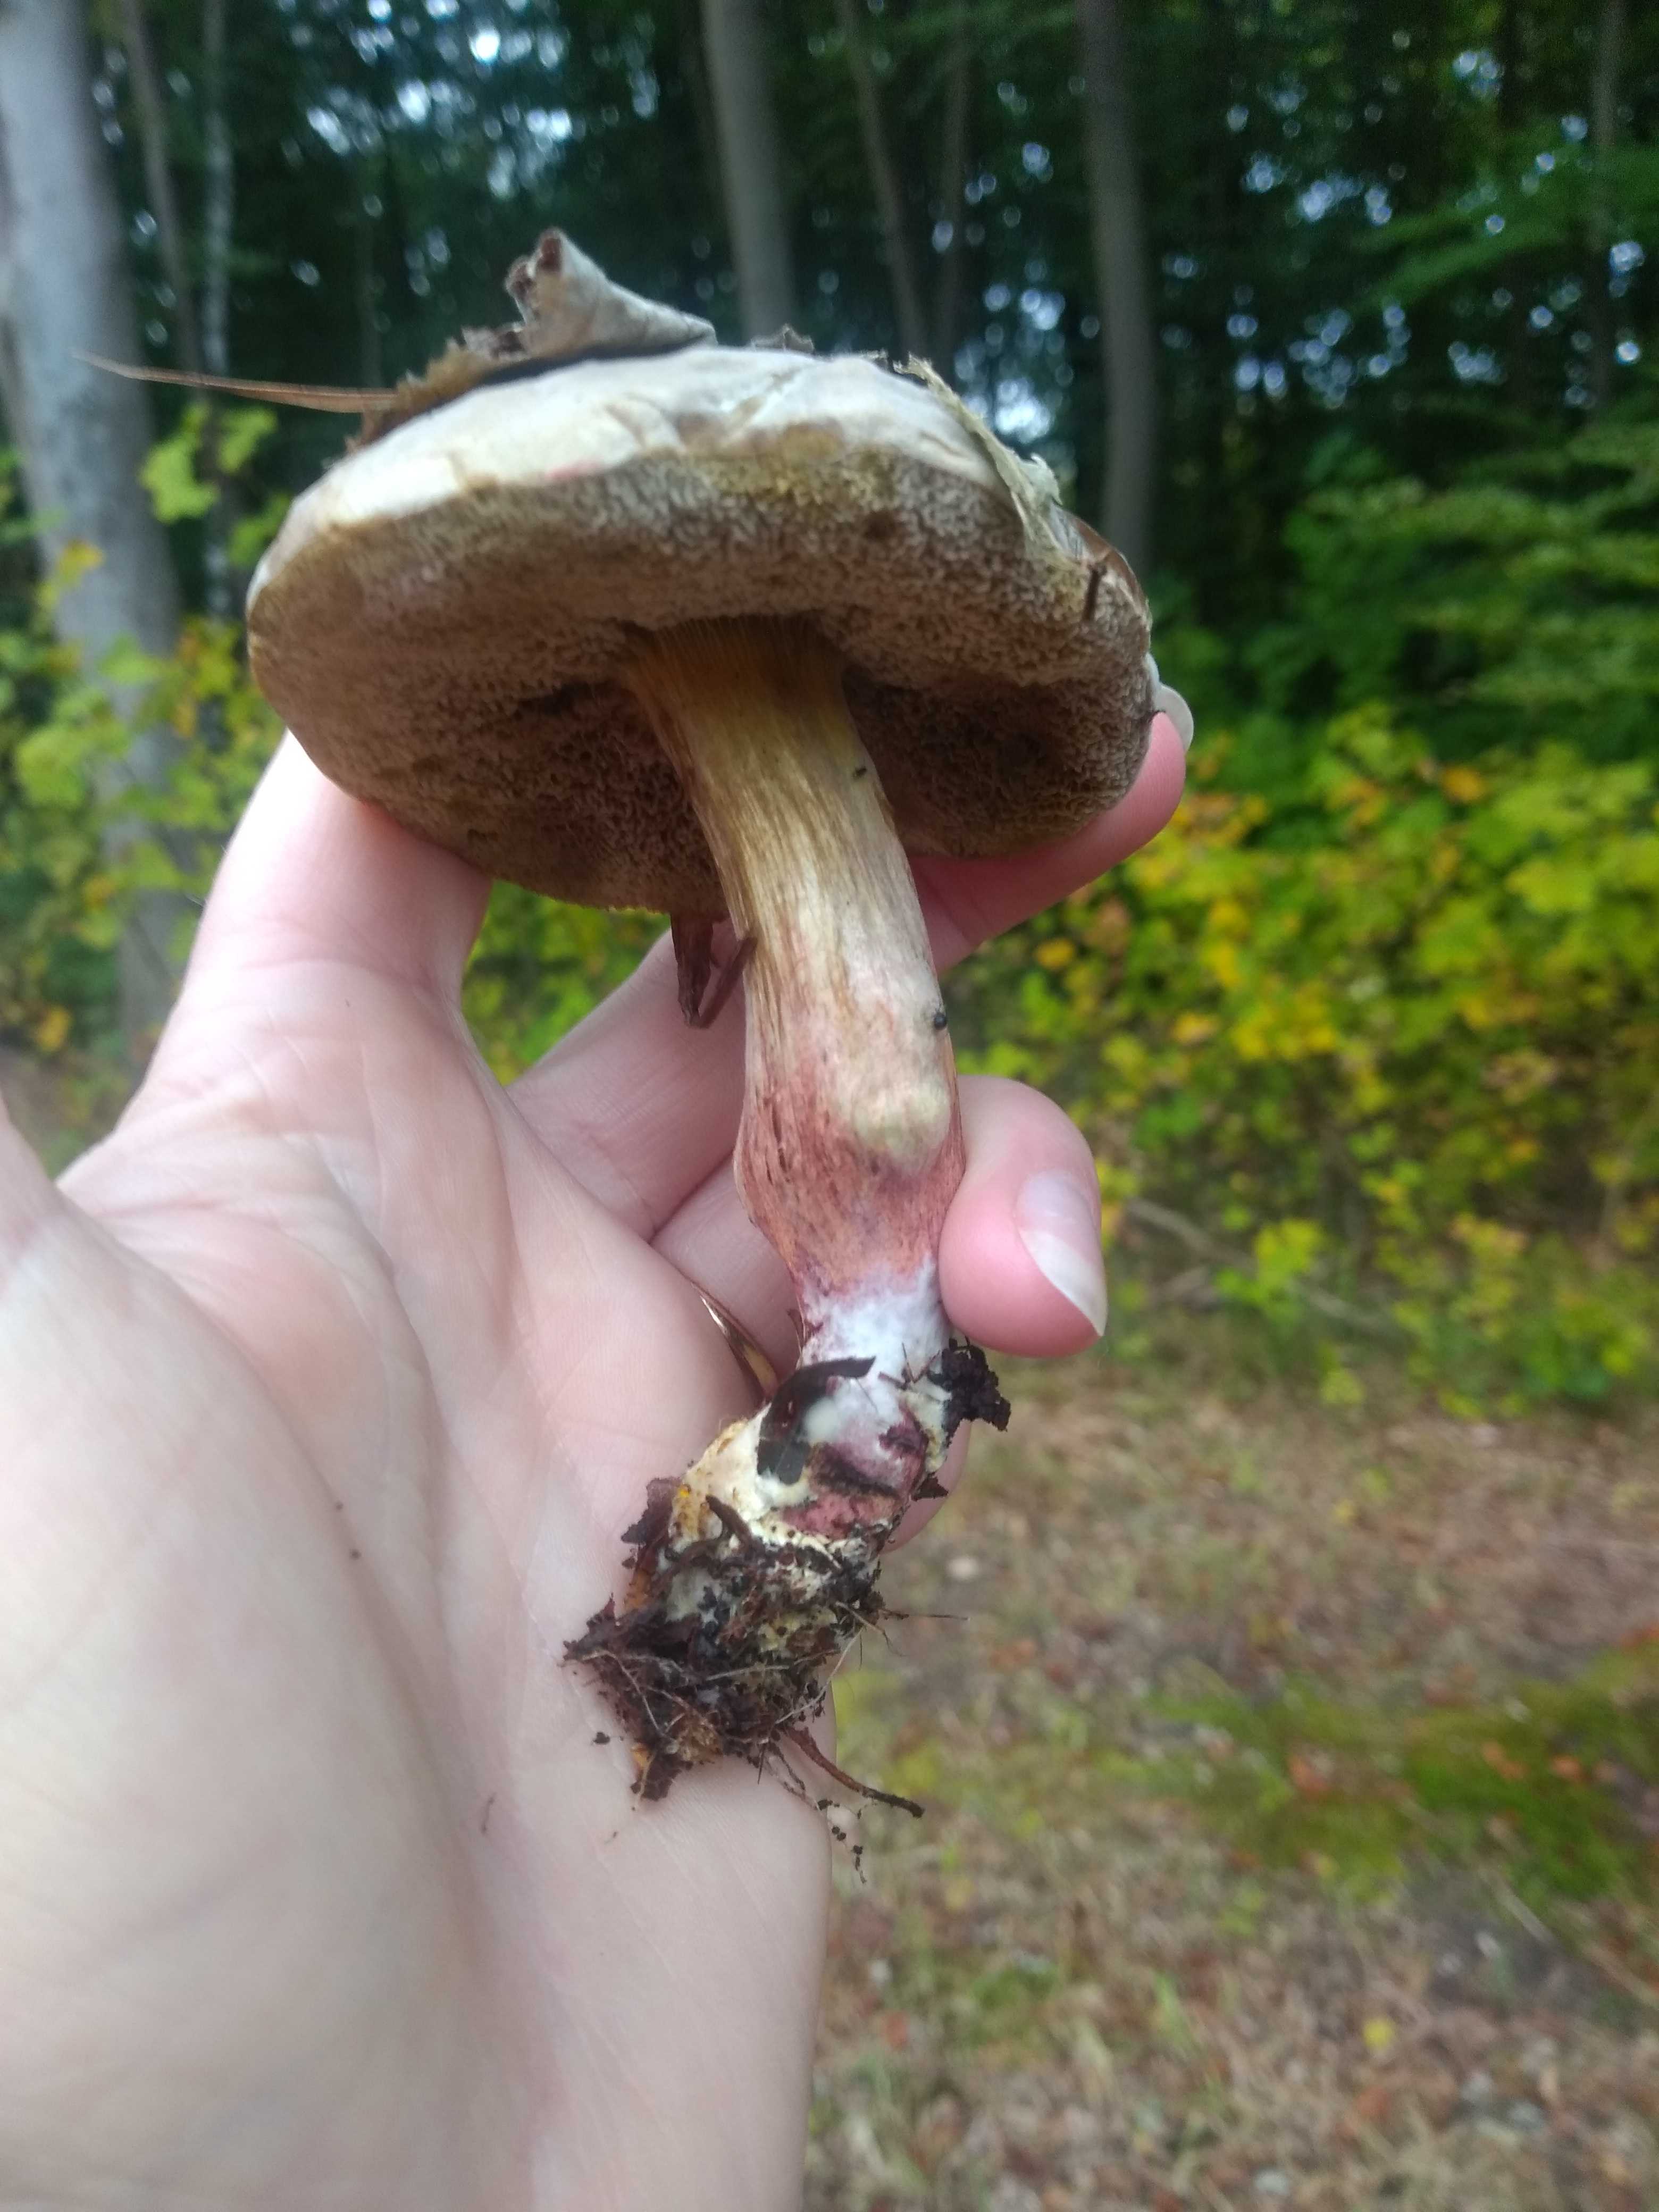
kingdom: Fungi
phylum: Basidiomycota
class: Agaricomycetes
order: Boletales
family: Boletaceae
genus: Xerocomellus
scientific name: Xerocomellus cisalpinus
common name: finsprukken rørhat
